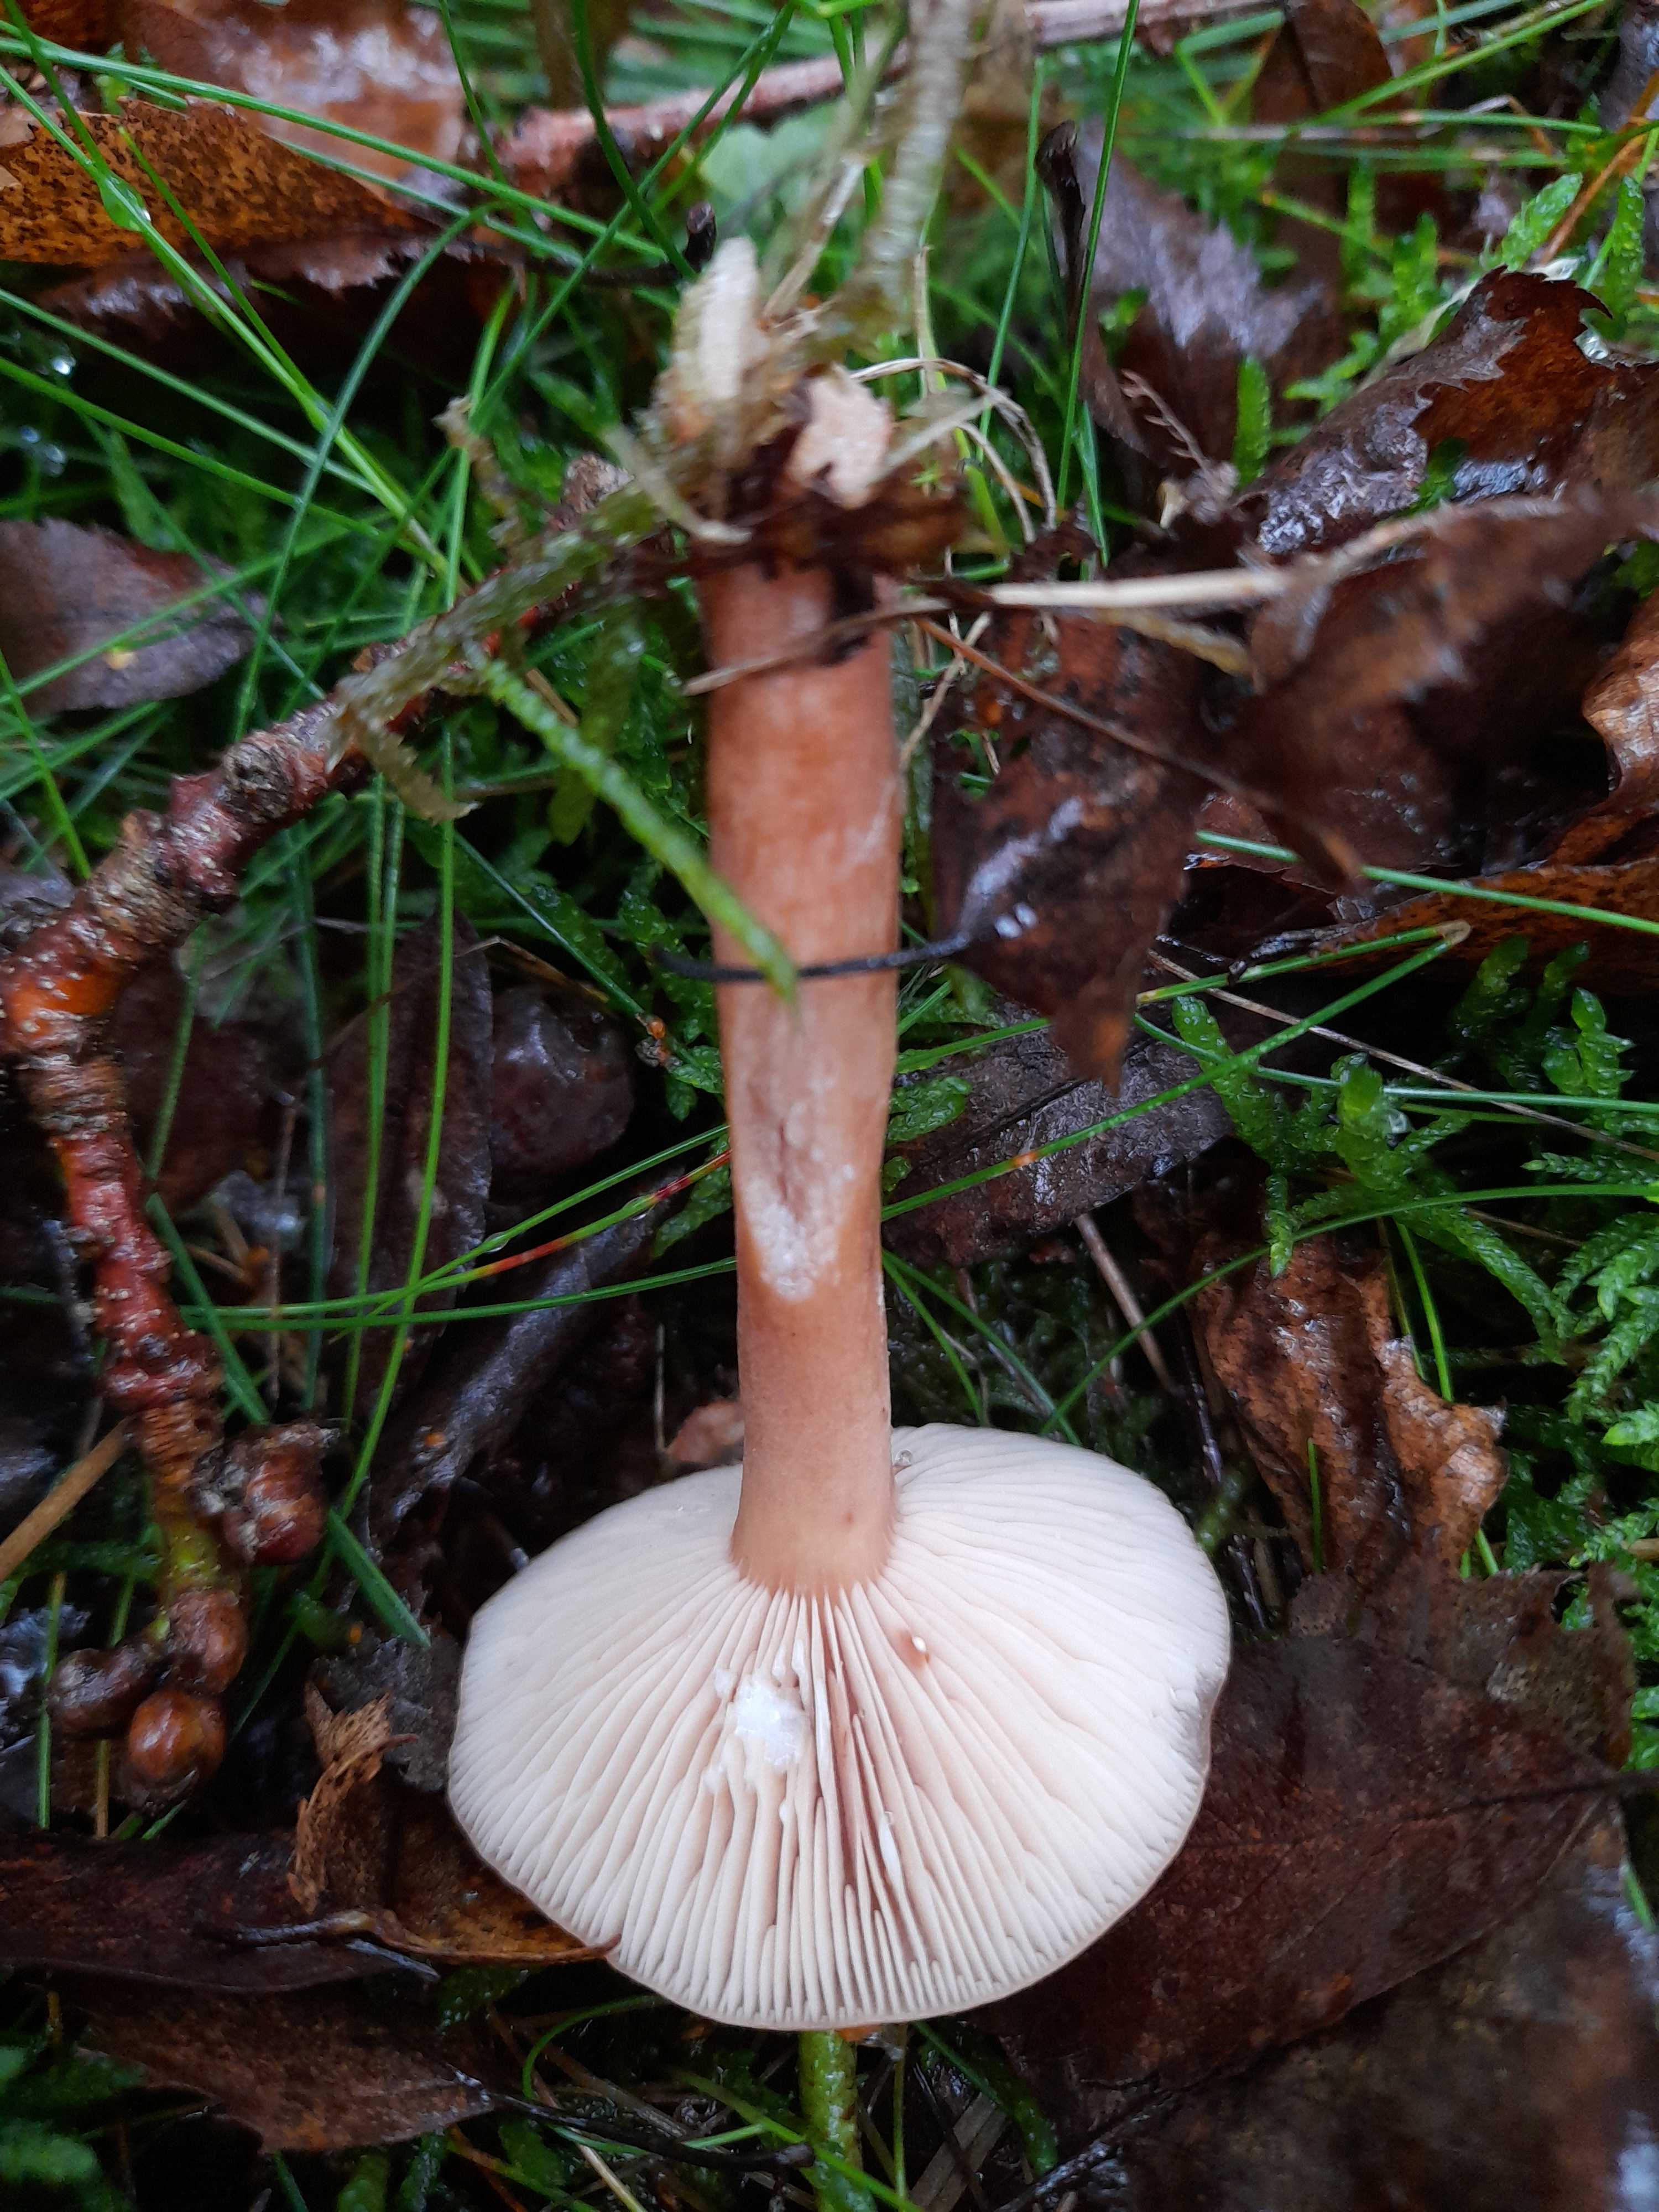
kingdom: Fungi
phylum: Basidiomycota
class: Agaricomycetes
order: Russulales
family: Russulaceae
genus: Lactarius
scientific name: Lactarius tabidus
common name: rynket mælkehat
